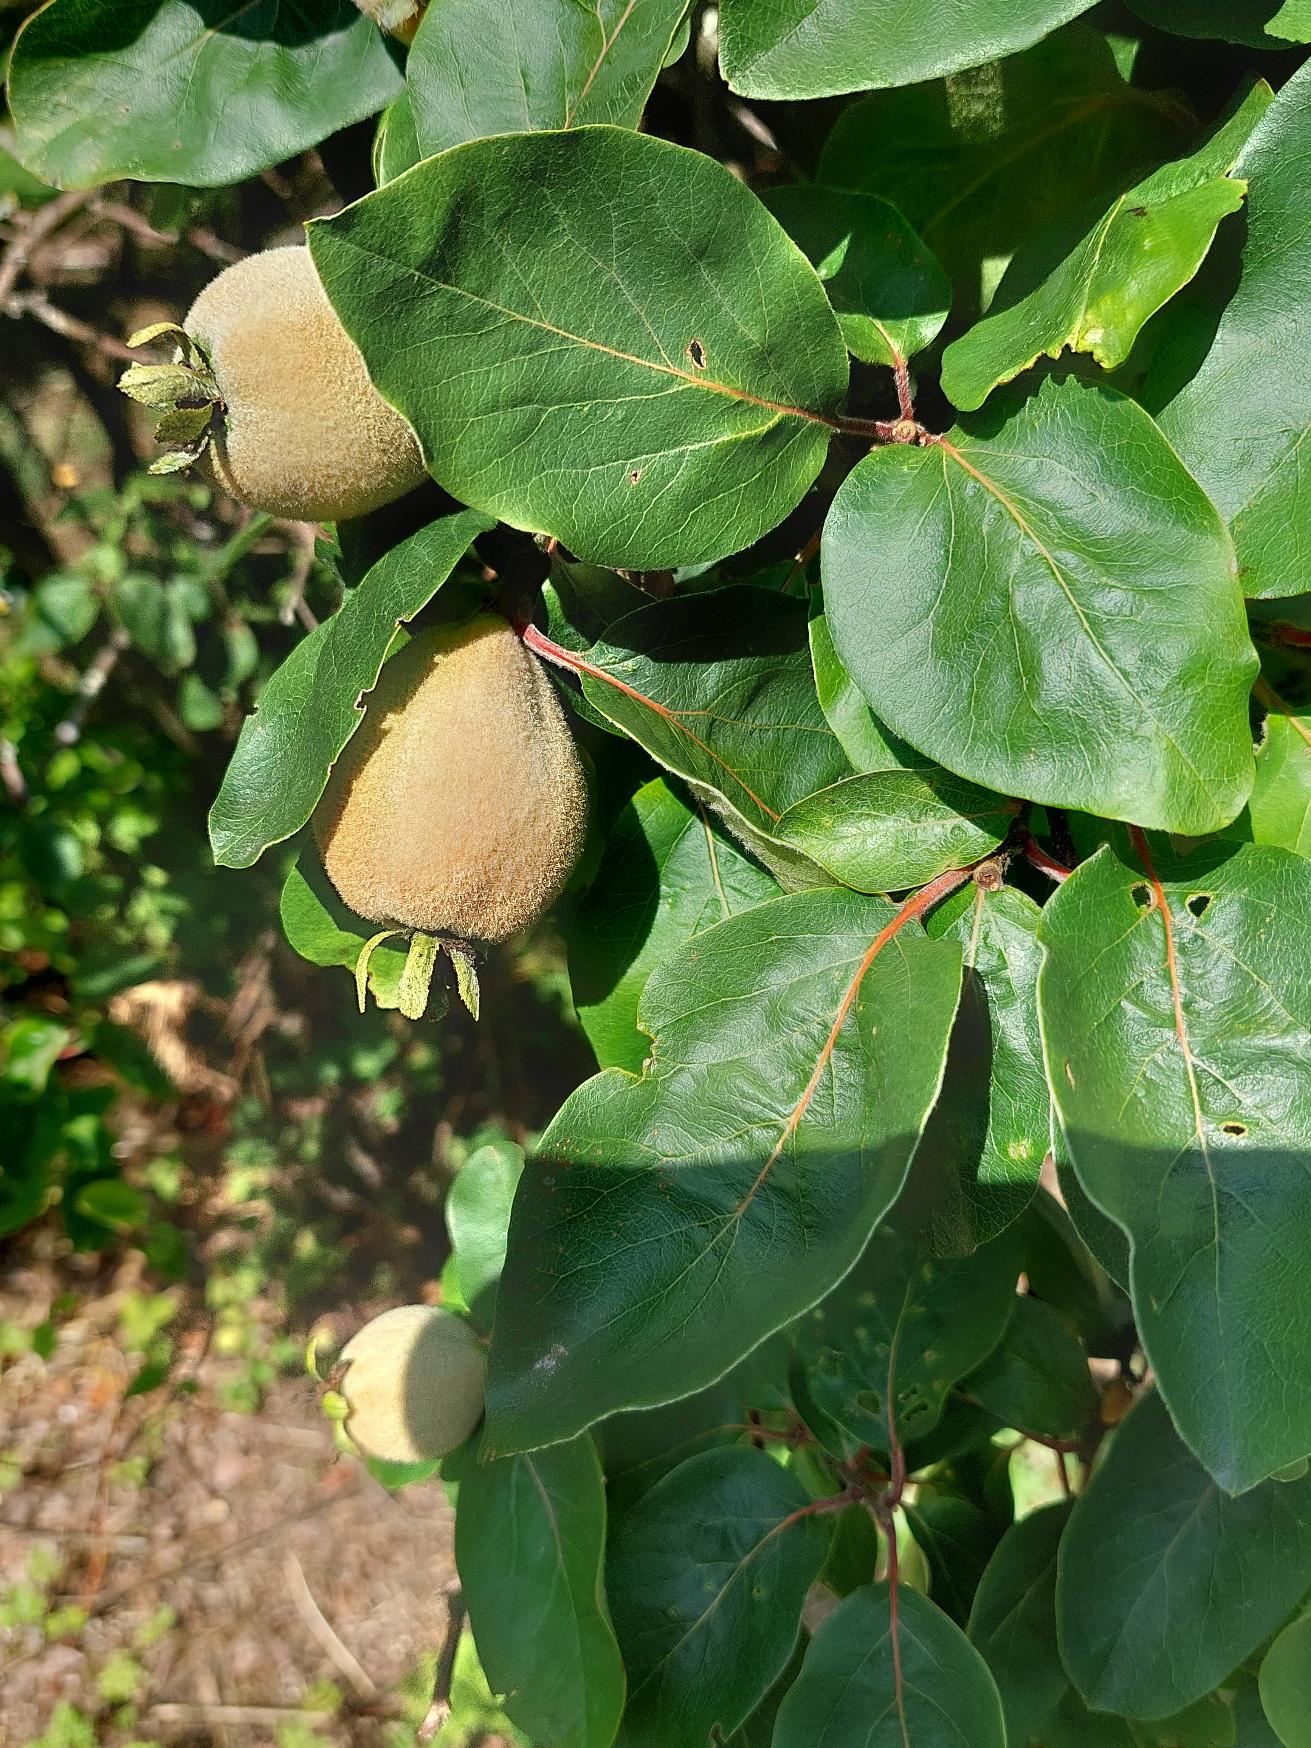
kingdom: Plantae
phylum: Tracheophyta
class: Magnoliopsida
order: Rosales
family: Rosaceae
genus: Cydonia
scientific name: Cydonia oblonga
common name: Pærekvæde
